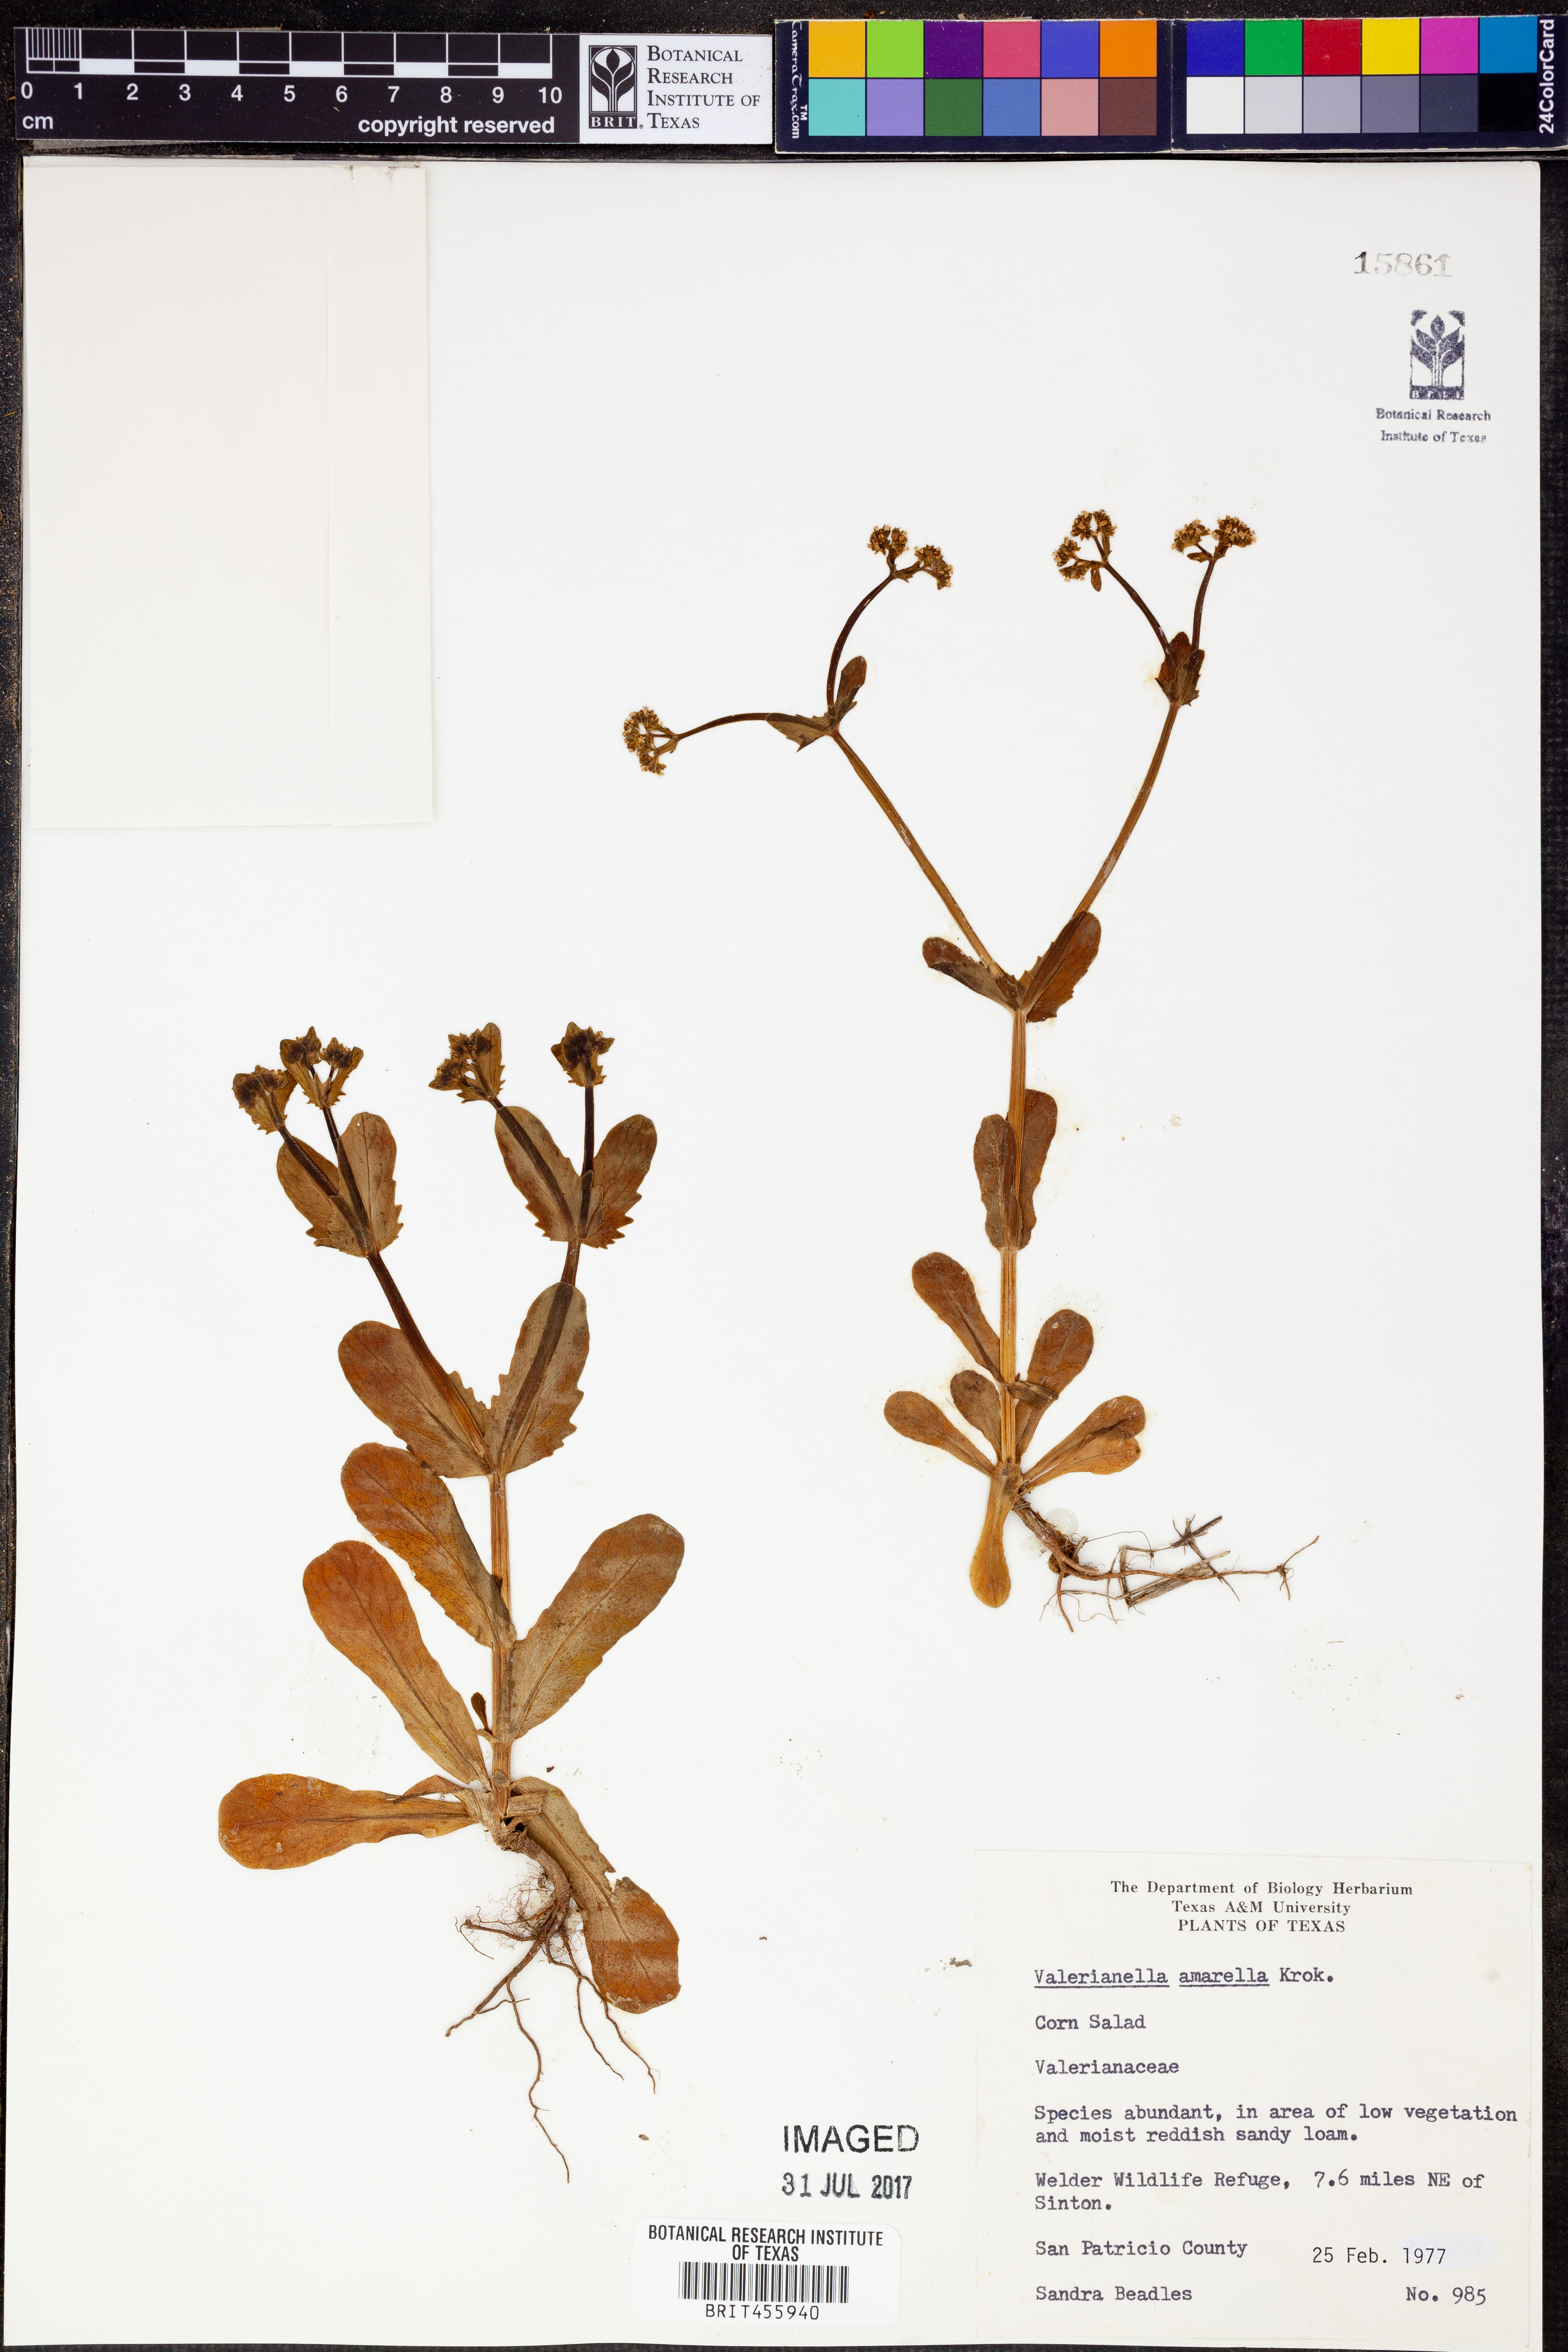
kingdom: Plantae
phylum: Tracheophyta
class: Magnoliopsida
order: Dipsacales
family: Caprifoliaceae
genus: Valerianella
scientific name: Valerianella amarella
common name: Hariy cornsalad
